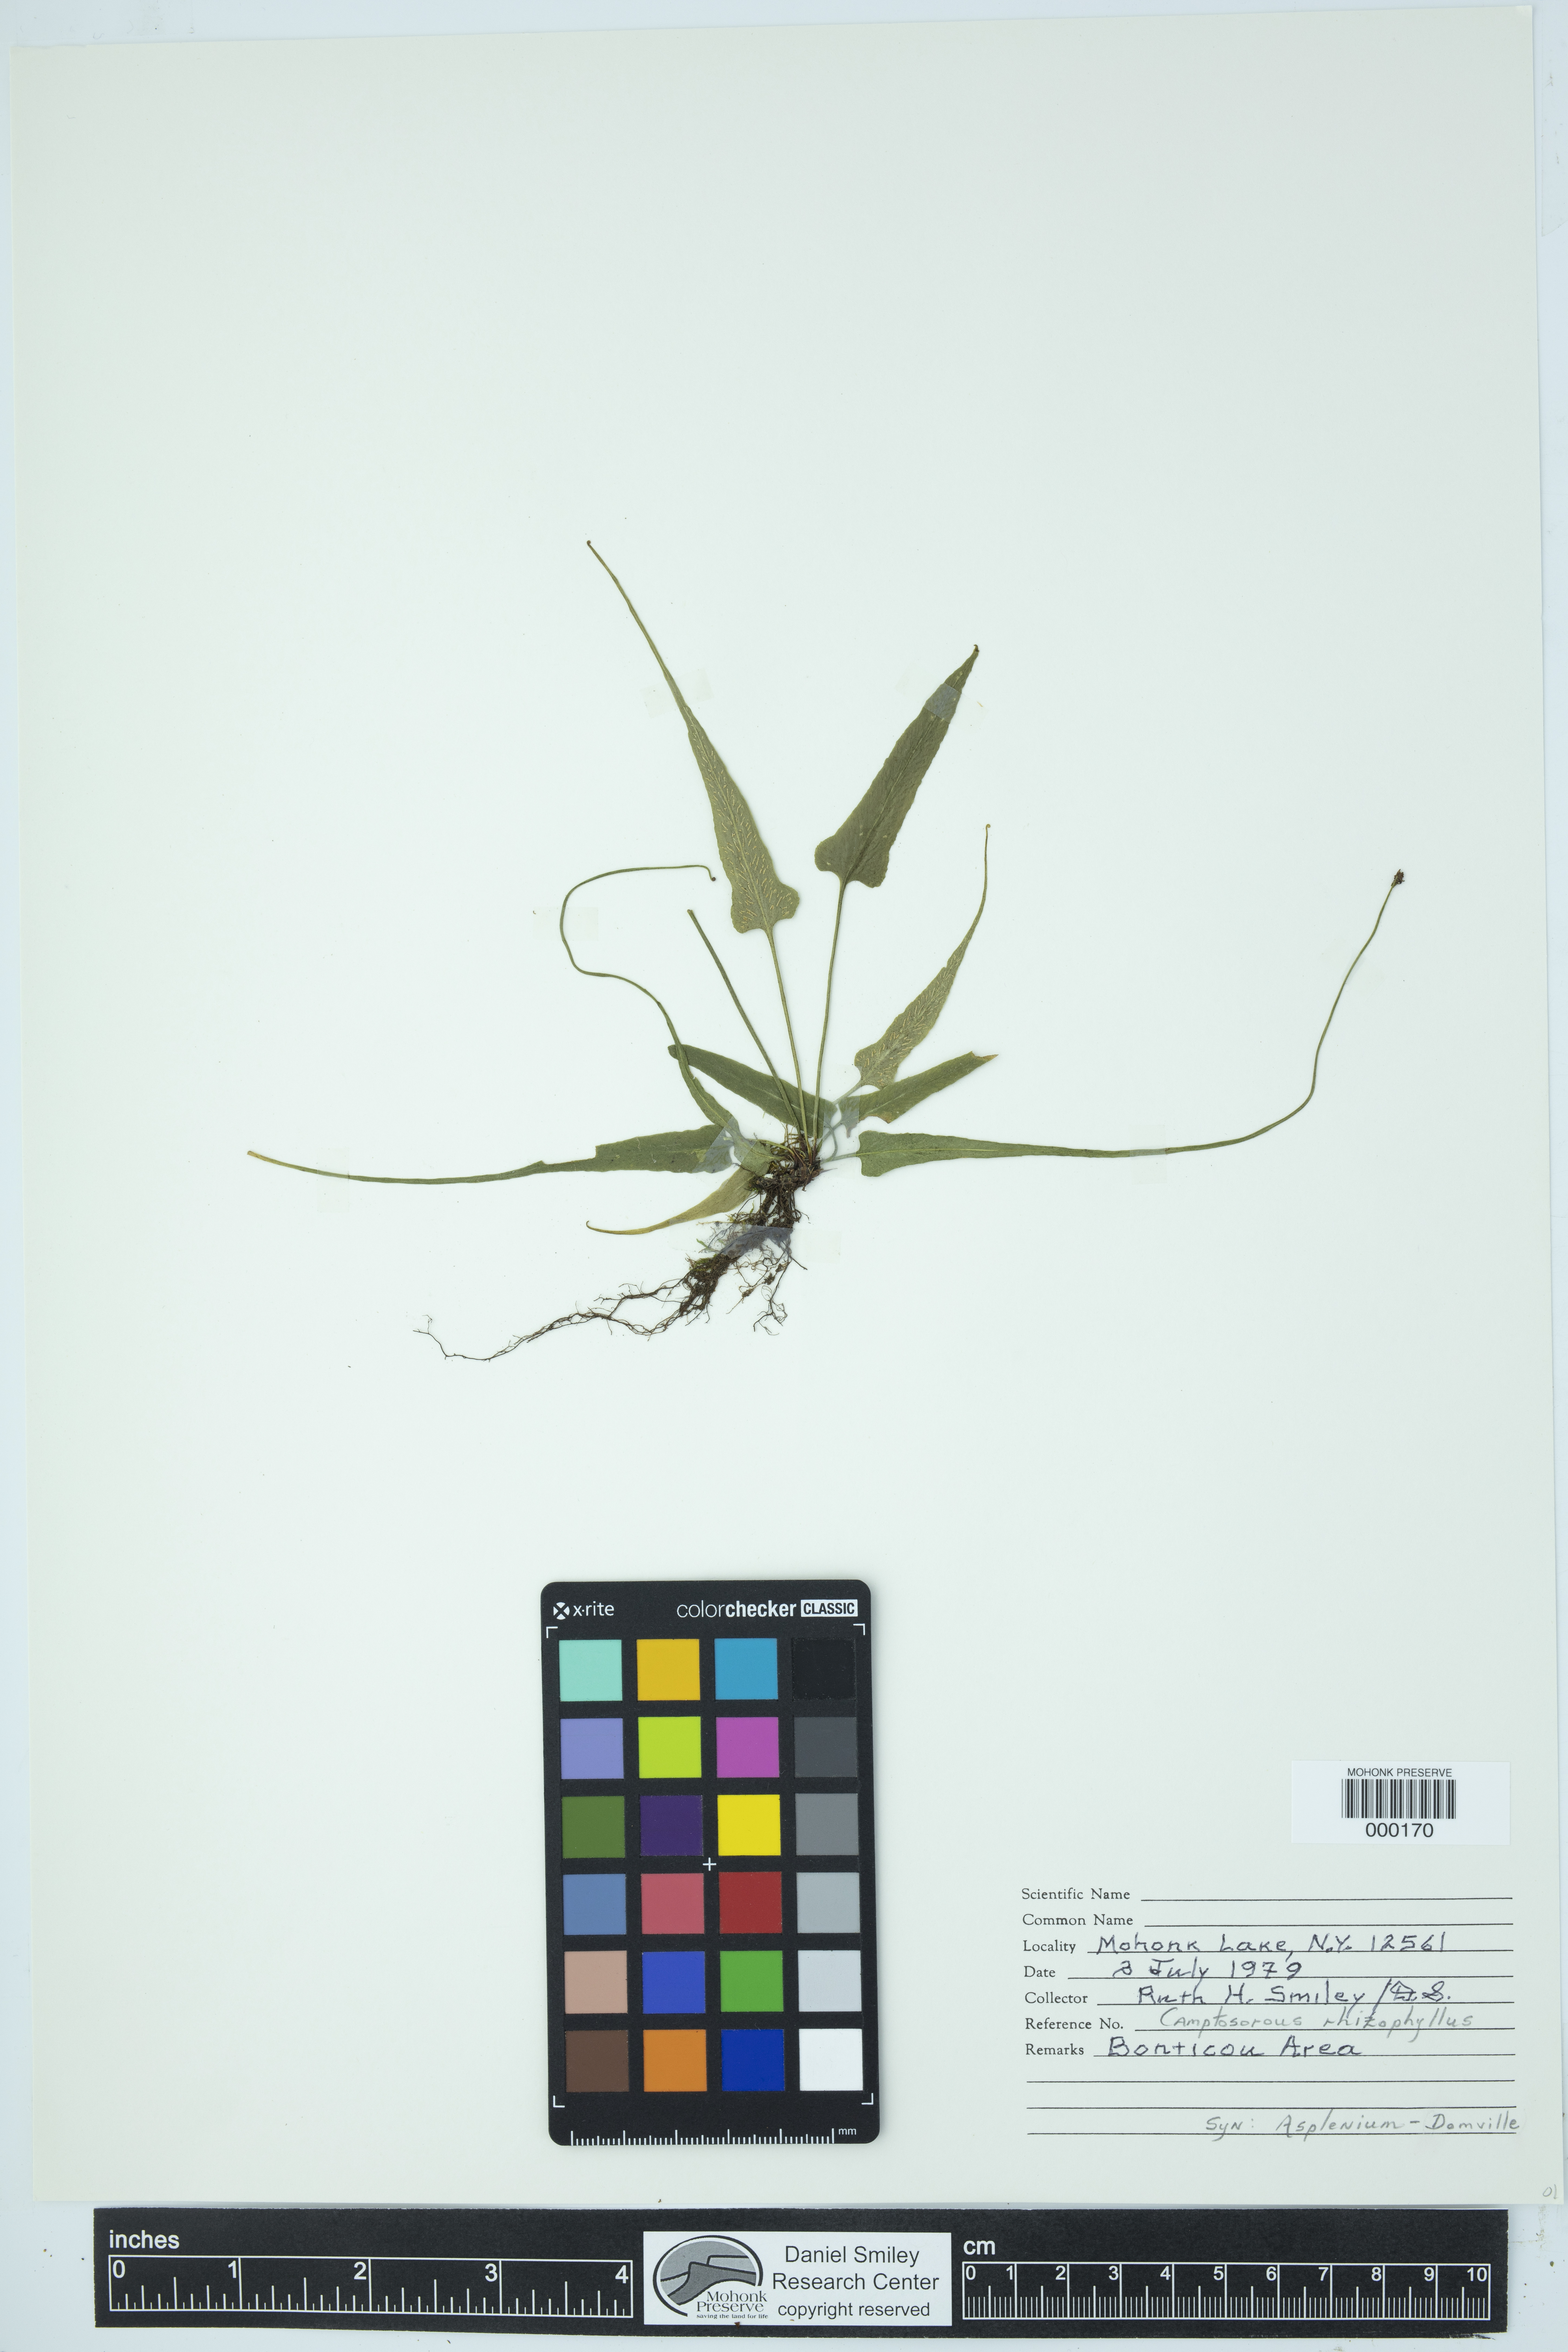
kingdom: Plantae
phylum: Tracheophyta
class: Polypodiopsida
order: Polypodiales
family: Aspleniaceae
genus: Asplenium
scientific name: Asplenium radicans
